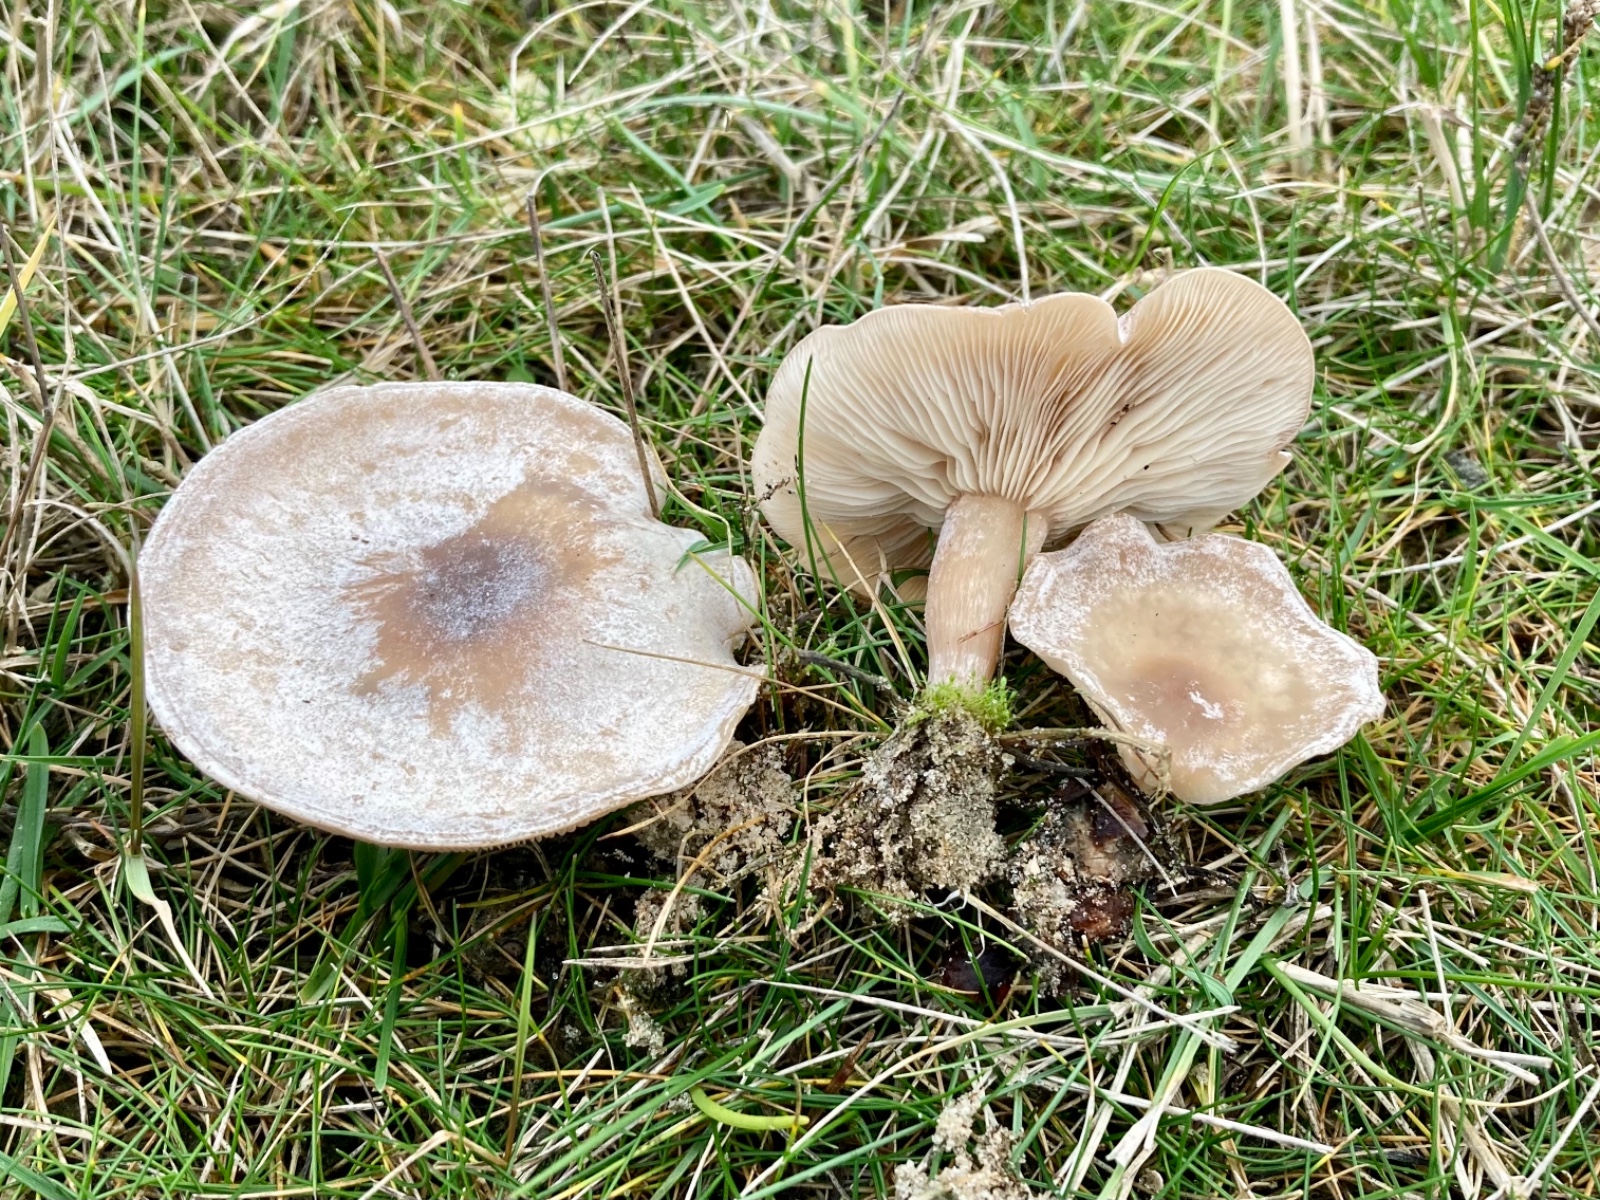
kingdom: Fungi
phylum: Basidiomycota
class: Agaricomycetes
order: Agaricales
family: Tricholomataceae
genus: Clitocybe
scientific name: Clitocybe rivulosa
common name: eng-tragthat
